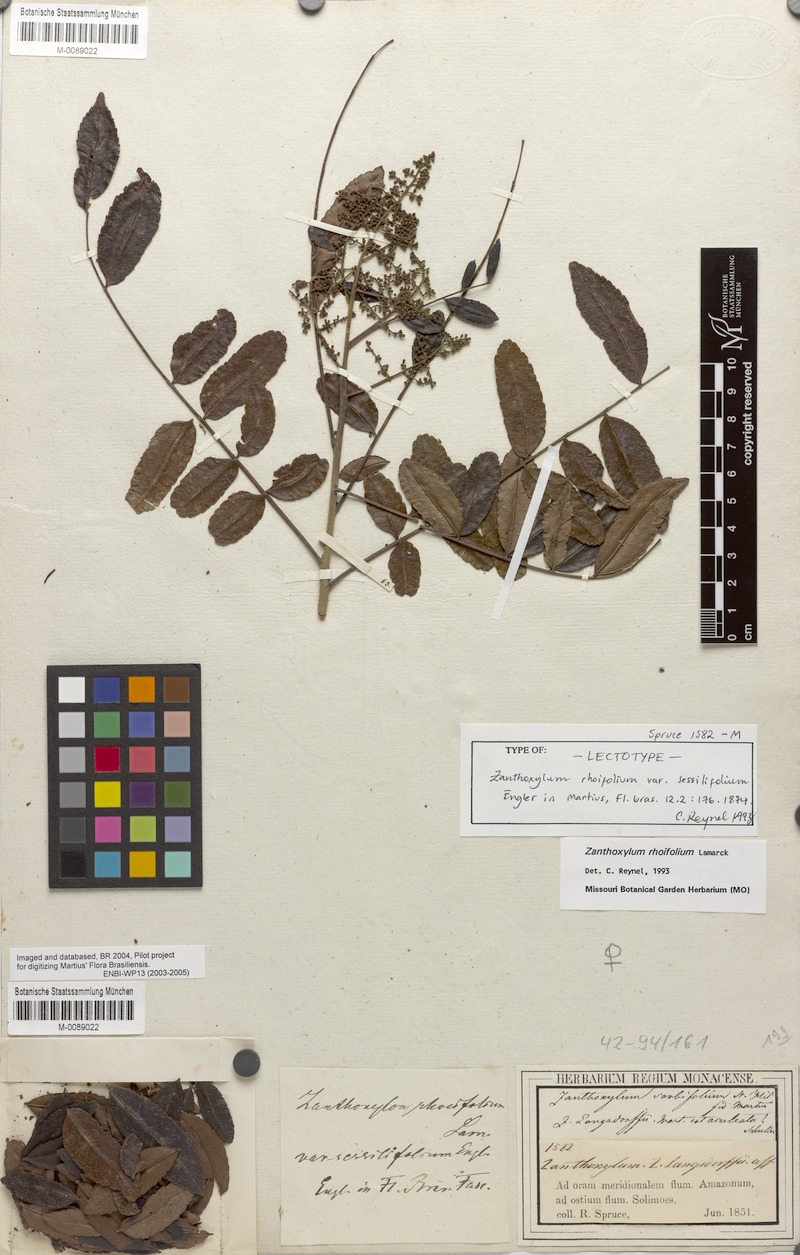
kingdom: Plantae
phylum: Tracheophyta
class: Magnoliopsida
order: Sapindales
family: Rutaceae
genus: Zanthoxylum
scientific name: Zanthoxylum rhoifolium
